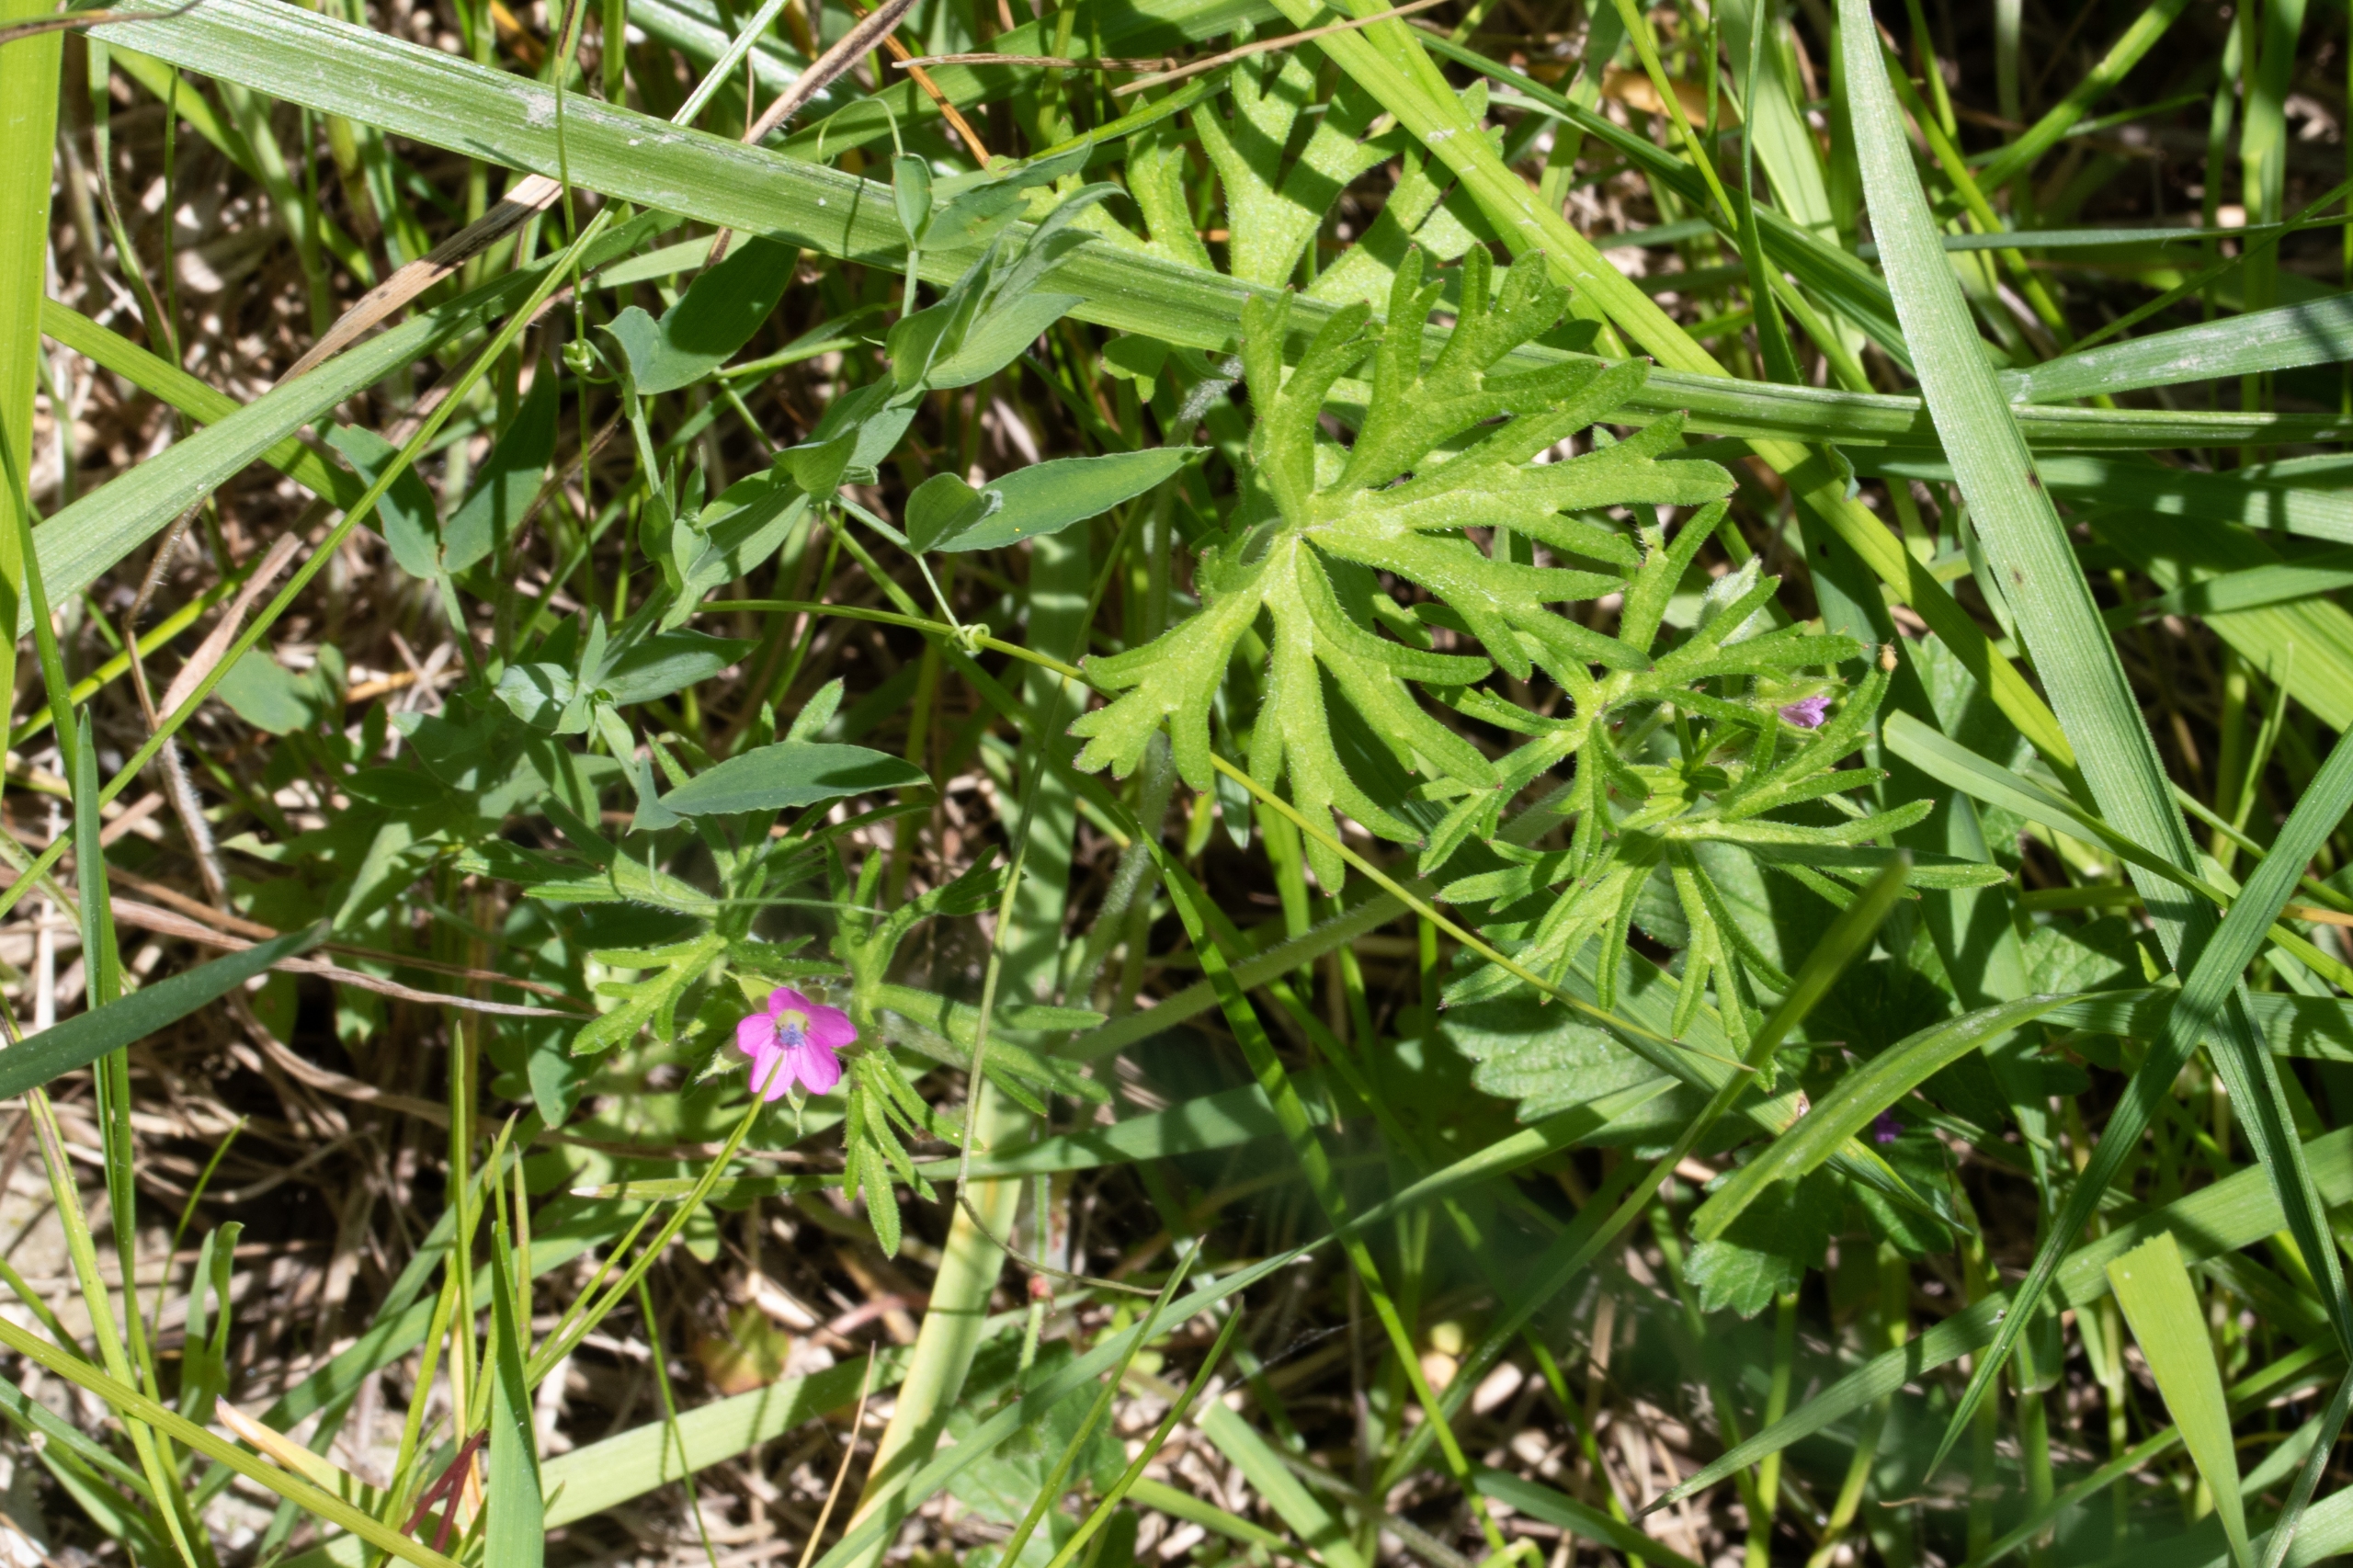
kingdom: Plantae
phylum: Tracheophyta
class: Magnoliopsida
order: Geraniales
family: Geraniaceae
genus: Geranium
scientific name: Geranium dissectum
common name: Kløftet storkenæb
